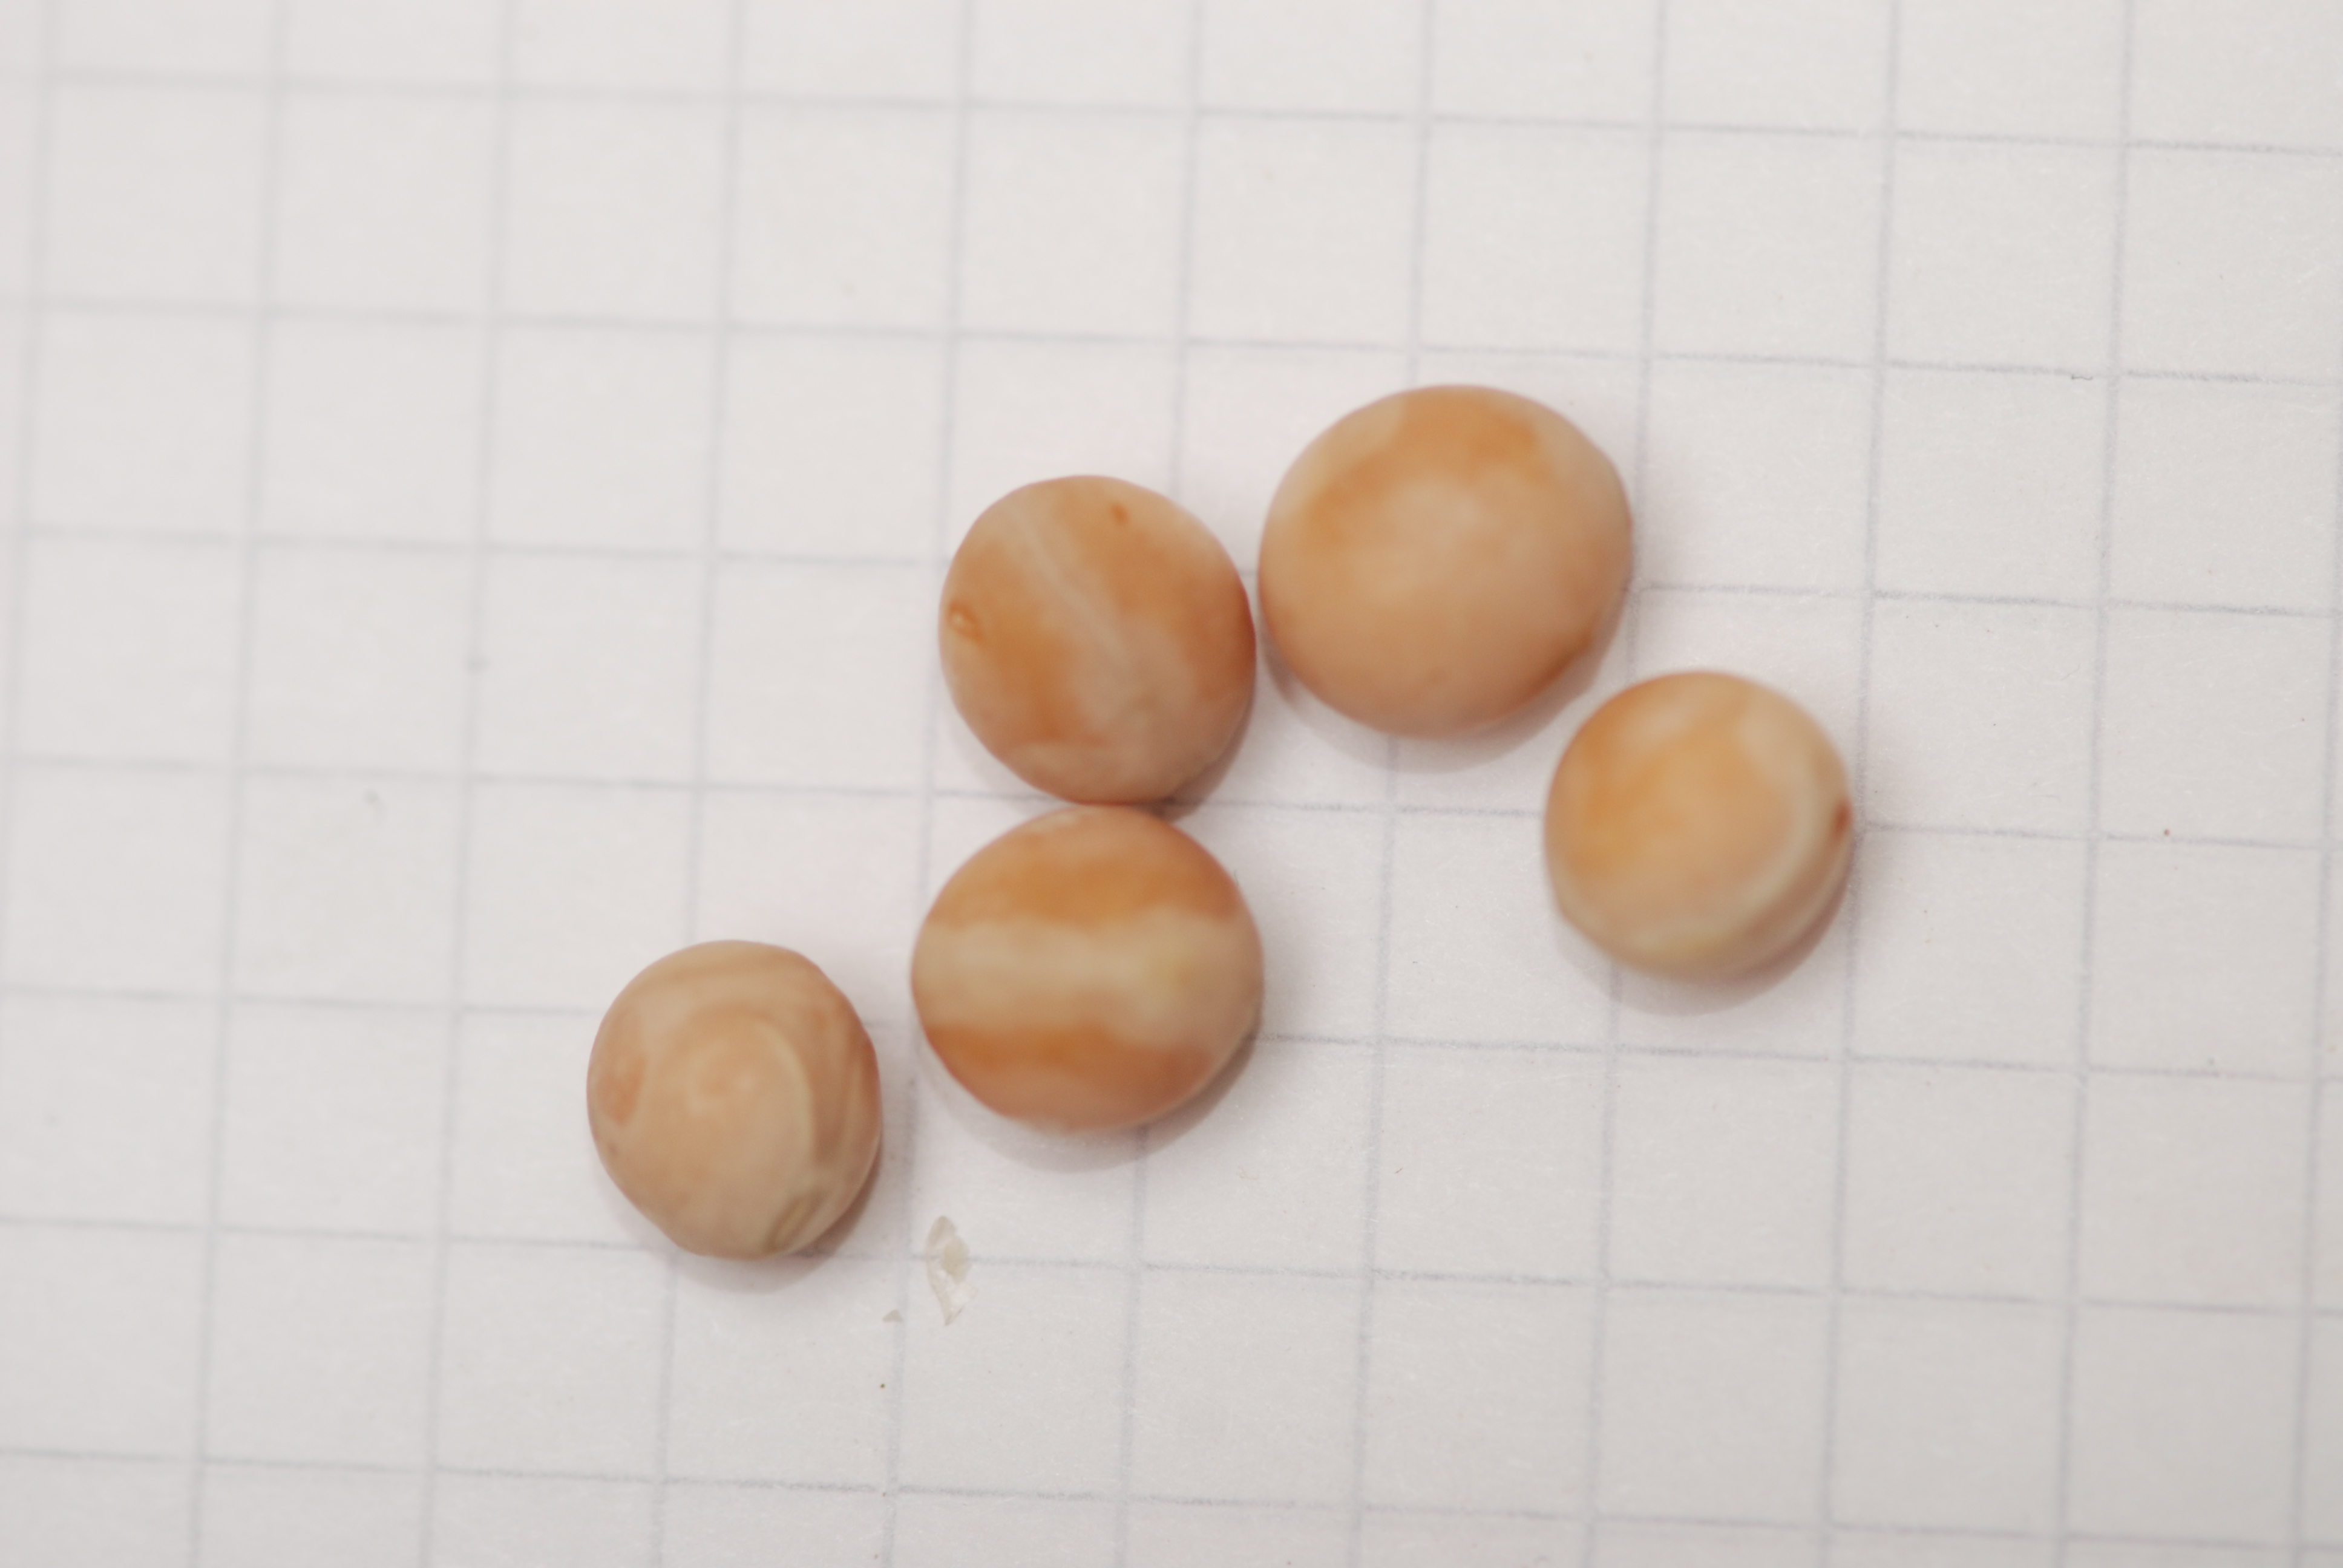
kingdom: Plantae
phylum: Tracheophyta
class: Magnoliopsida
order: Fabales
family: Fabaceae
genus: Lathyrus
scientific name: Lathyrus oleraceus
